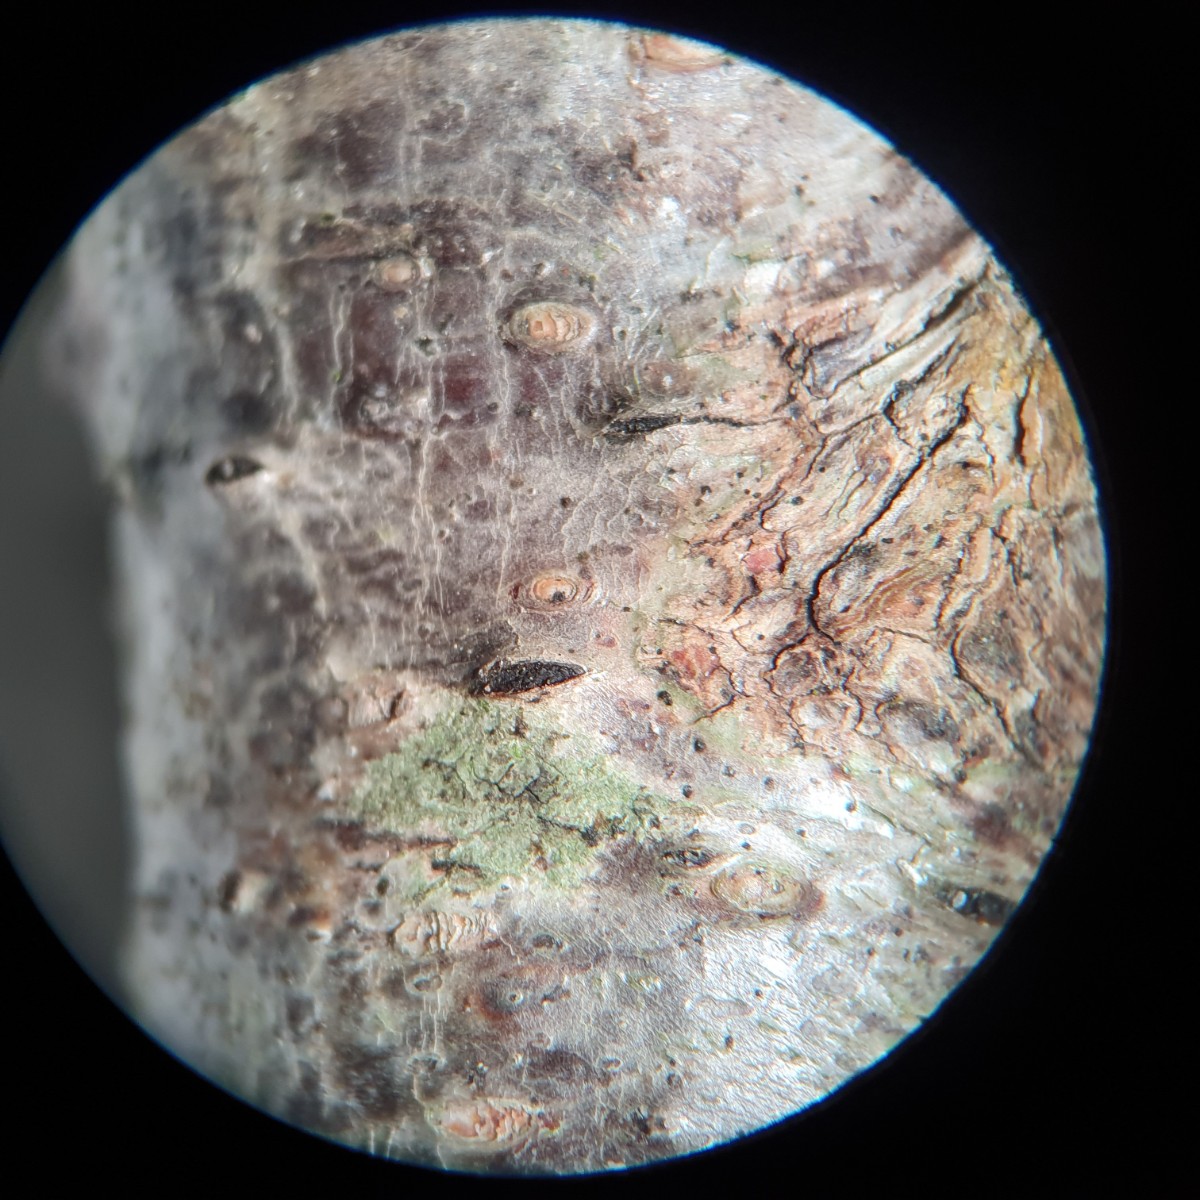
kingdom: Fungi
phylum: Ascomycota
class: Sordariomycetes
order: Xylariales
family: Diatrypaceae
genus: Diatrypella
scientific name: Diatrypella favacea
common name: klemt kulskorpe
